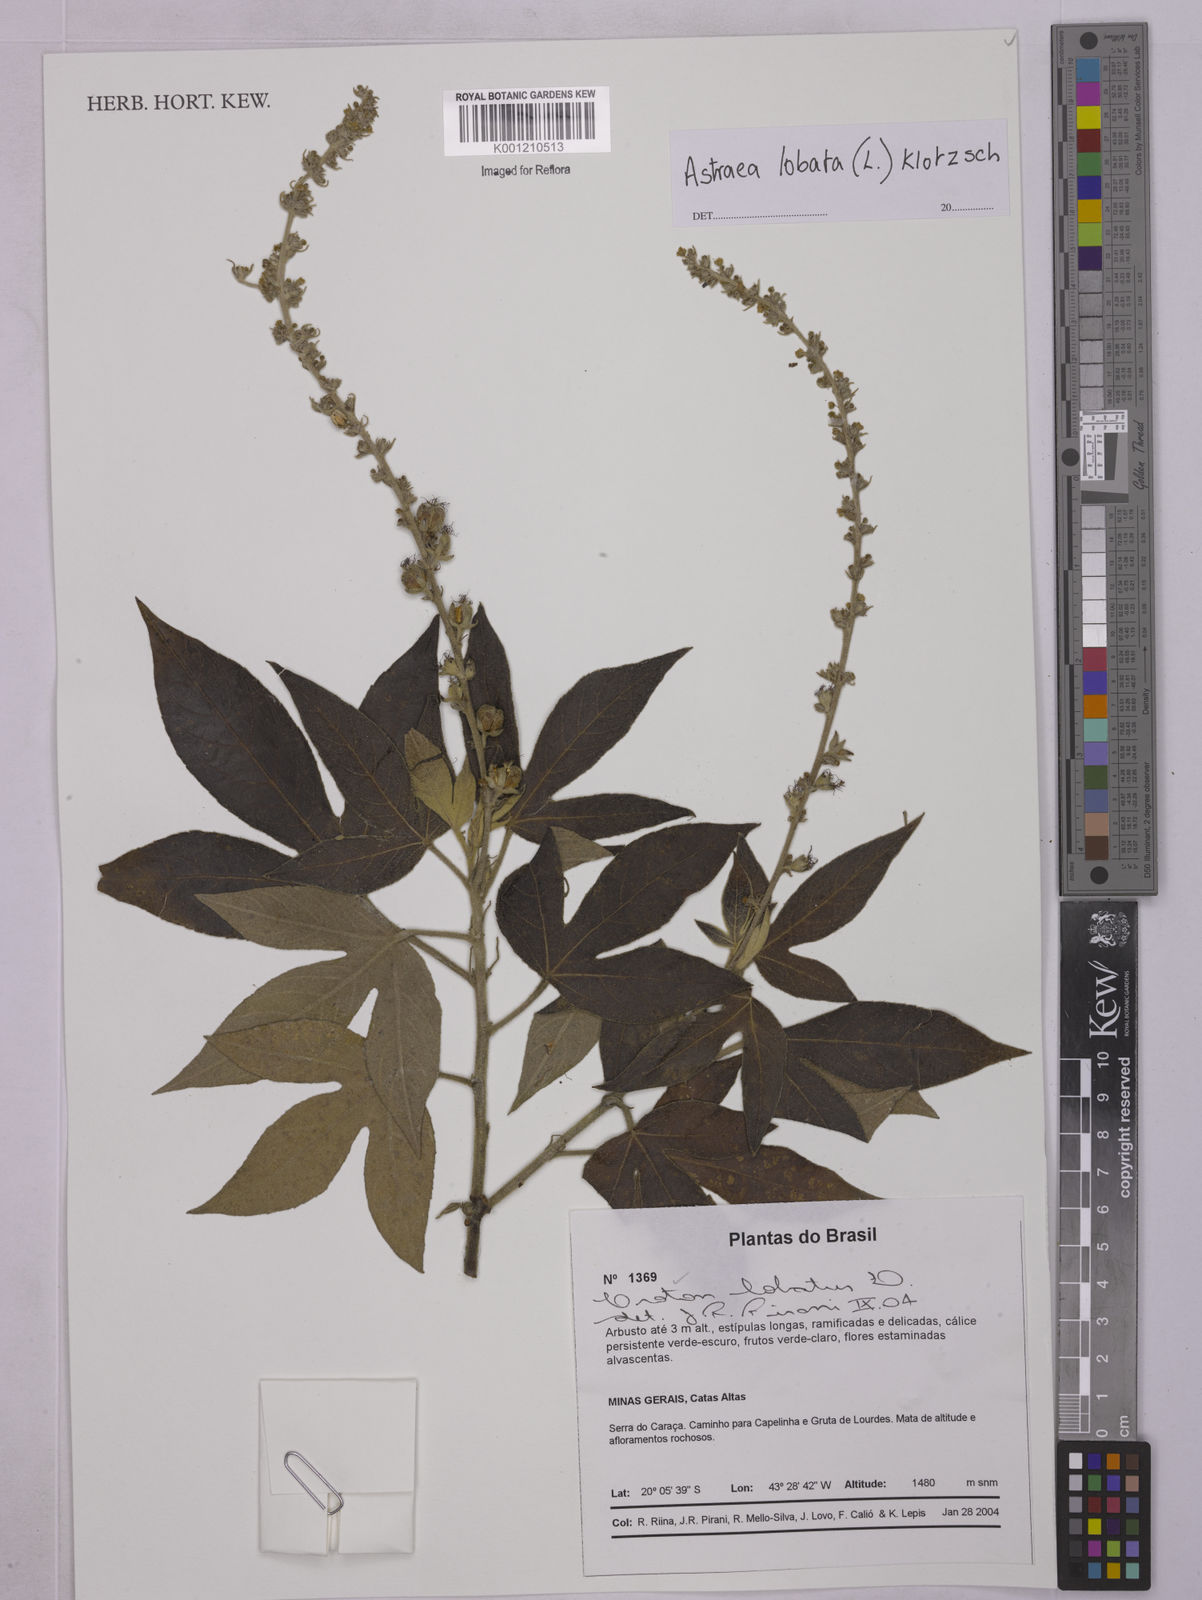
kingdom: Plantae
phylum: Tracheophyta
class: Magnoliopsida
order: Malpighiales
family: Euphorbiaceae
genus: Astraea
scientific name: Astraea lobata
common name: Lobed croton
